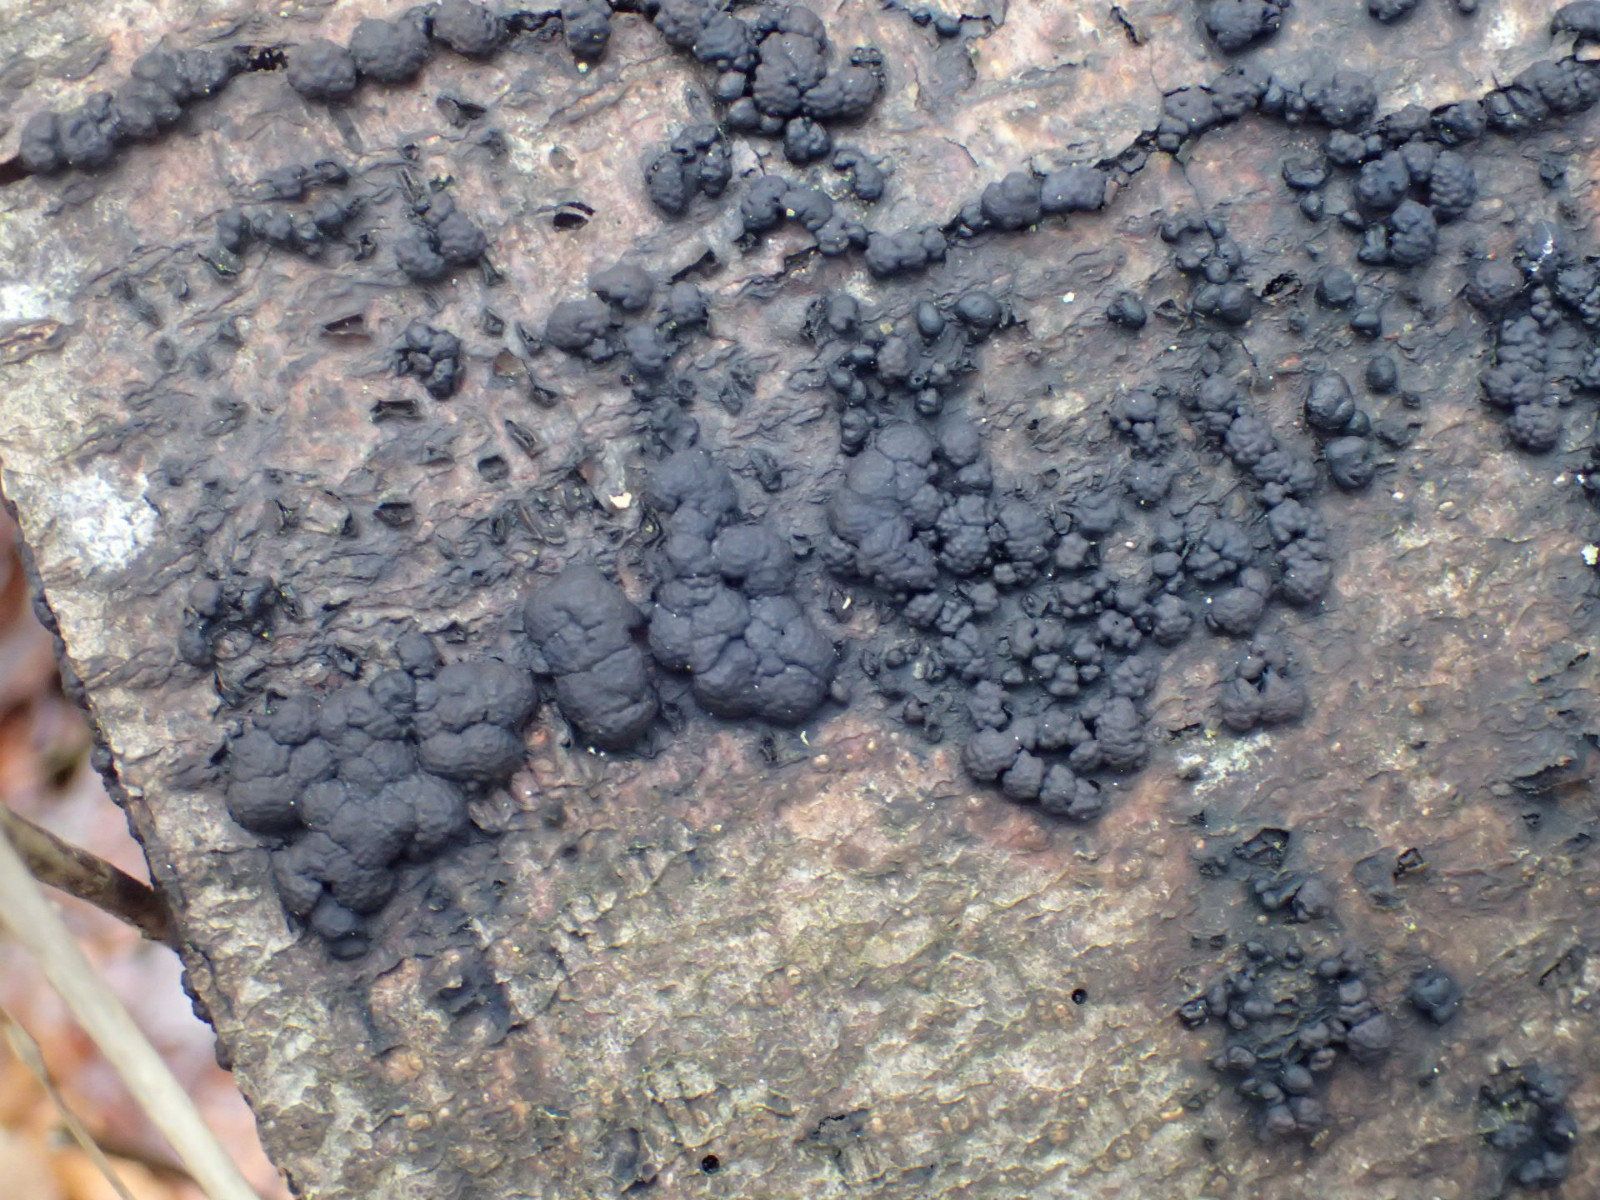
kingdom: Fungi
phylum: Ascomycota
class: Sordariomycetes
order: Xylariales
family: Hypoxylaceae
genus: Jackrogersella
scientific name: Jackrogersella cohaerens
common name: sammenflydende kulbær
